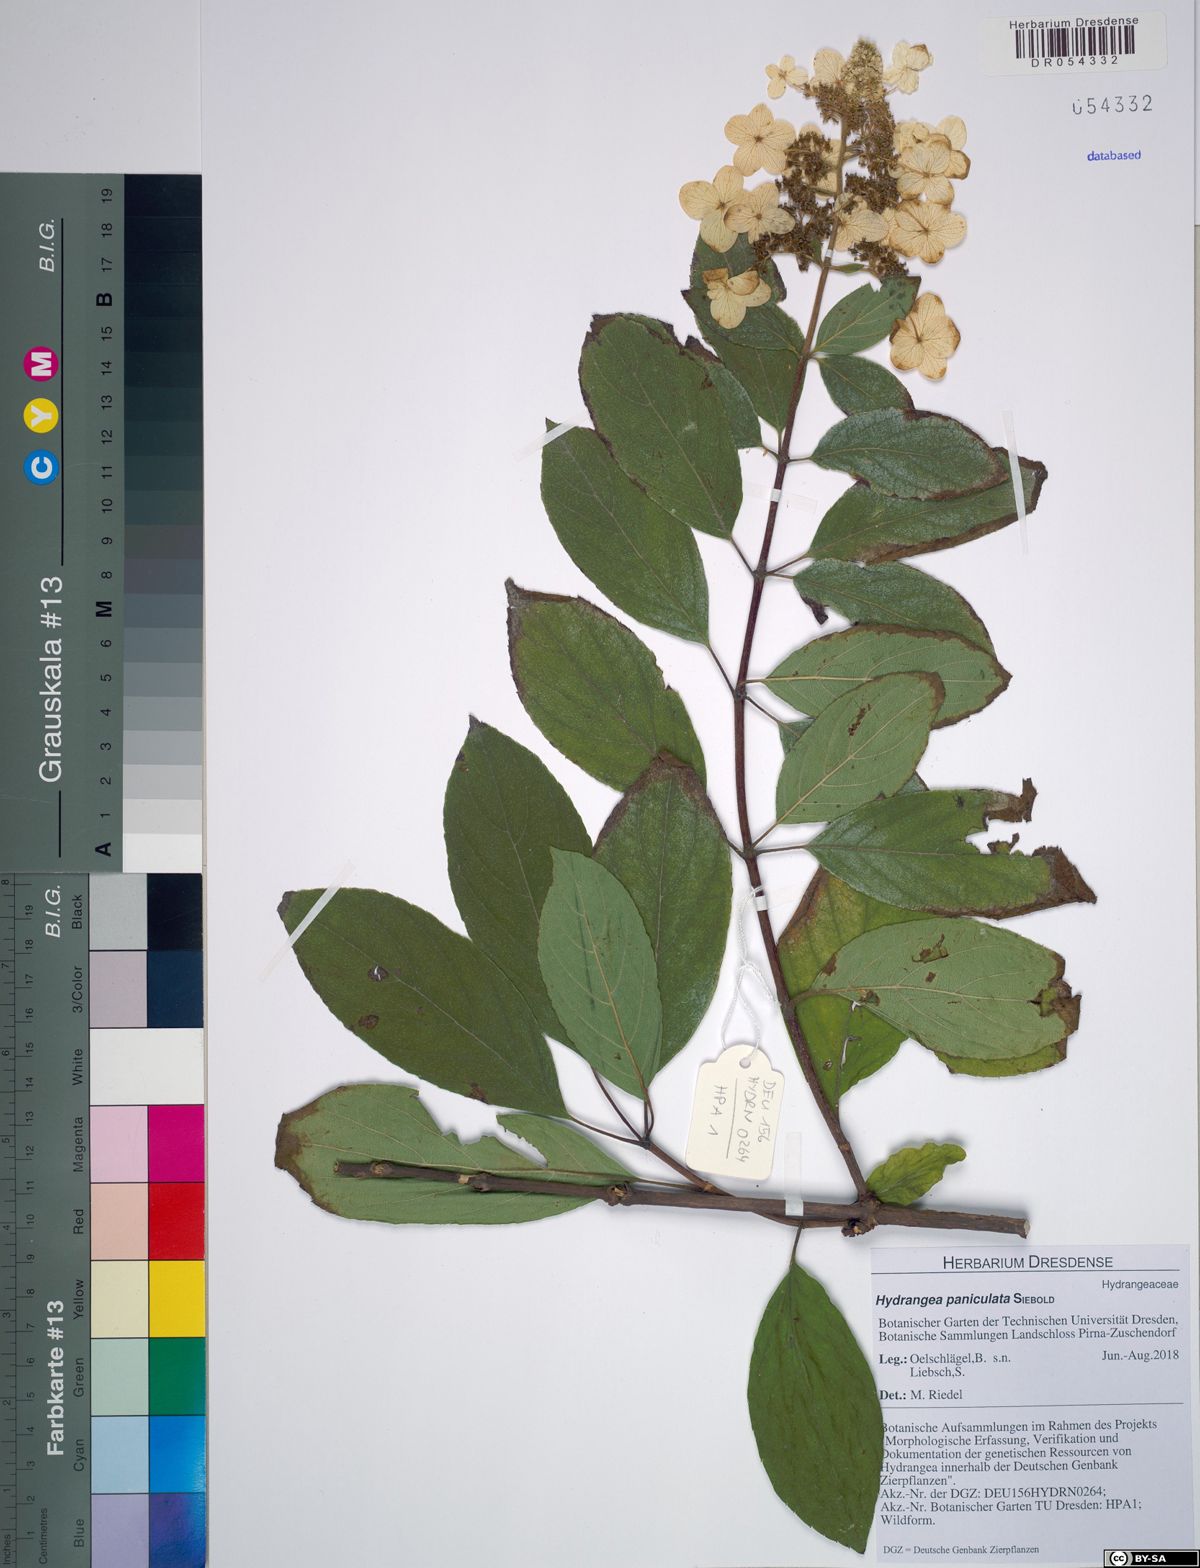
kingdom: Plantae
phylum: Tracheophyta
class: Magnoliopsida
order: Cornales
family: Hydrangeaceae
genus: Hydrangea
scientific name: Hydrangea paniculata
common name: Panicled hydrangea
